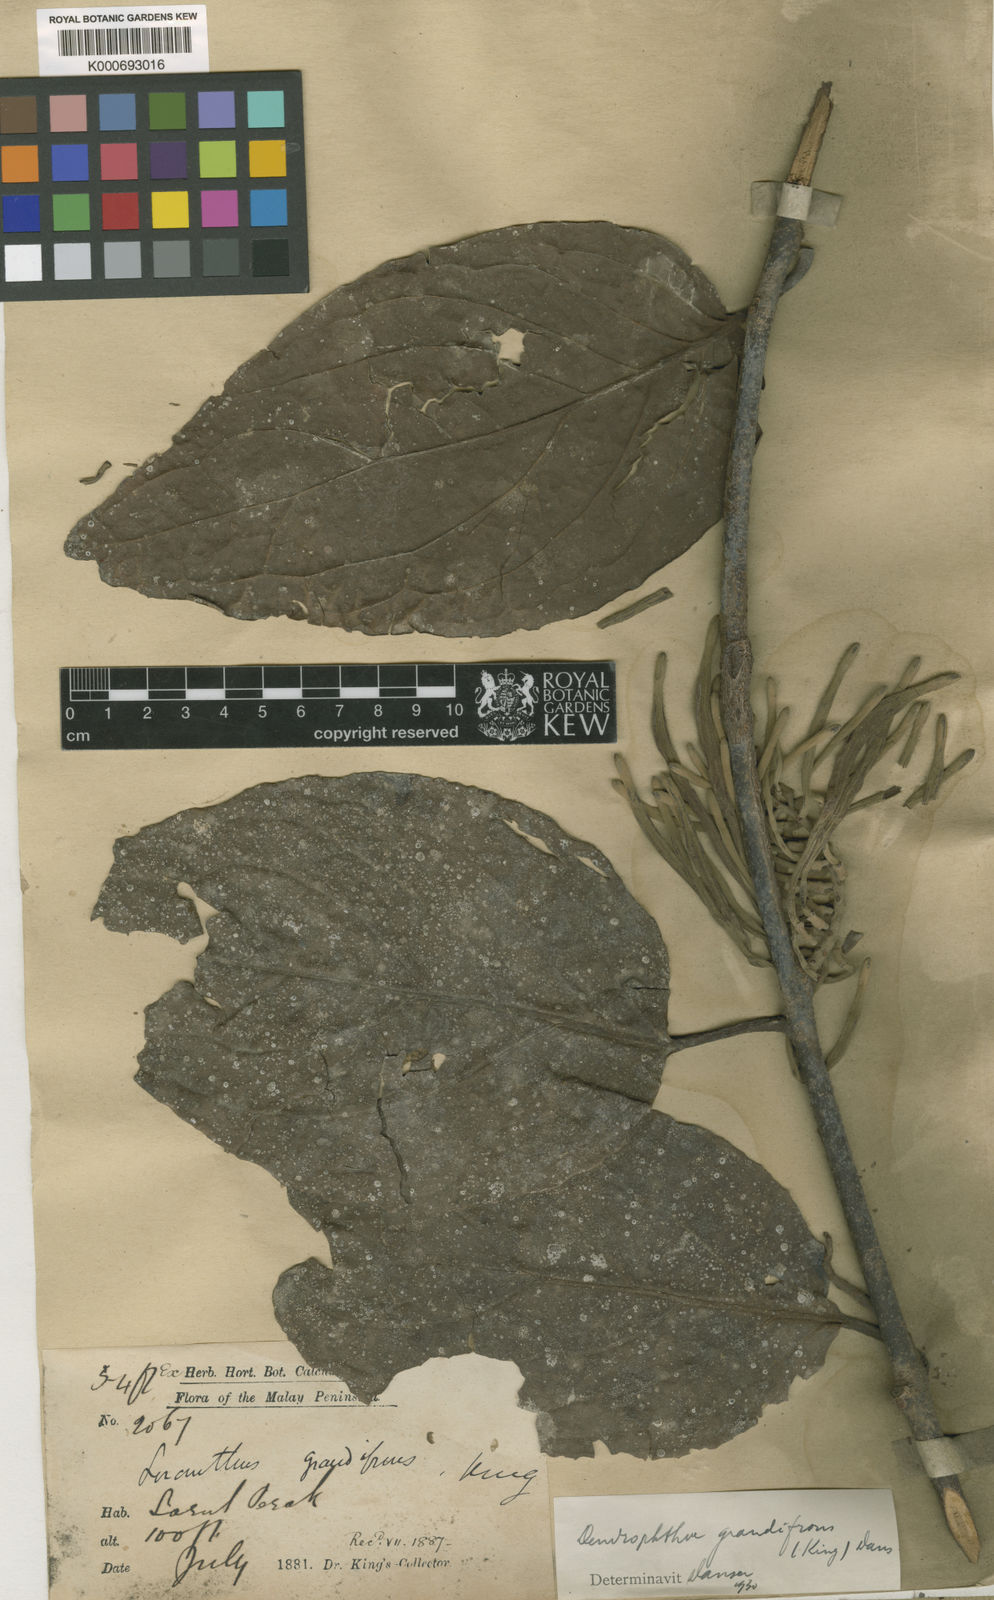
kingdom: Plantae
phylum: Tracheophyta
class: Magnoliopsida
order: Santalales
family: Loranthaceae
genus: Dendrophthoe
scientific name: Dendrophthoe incarnata
